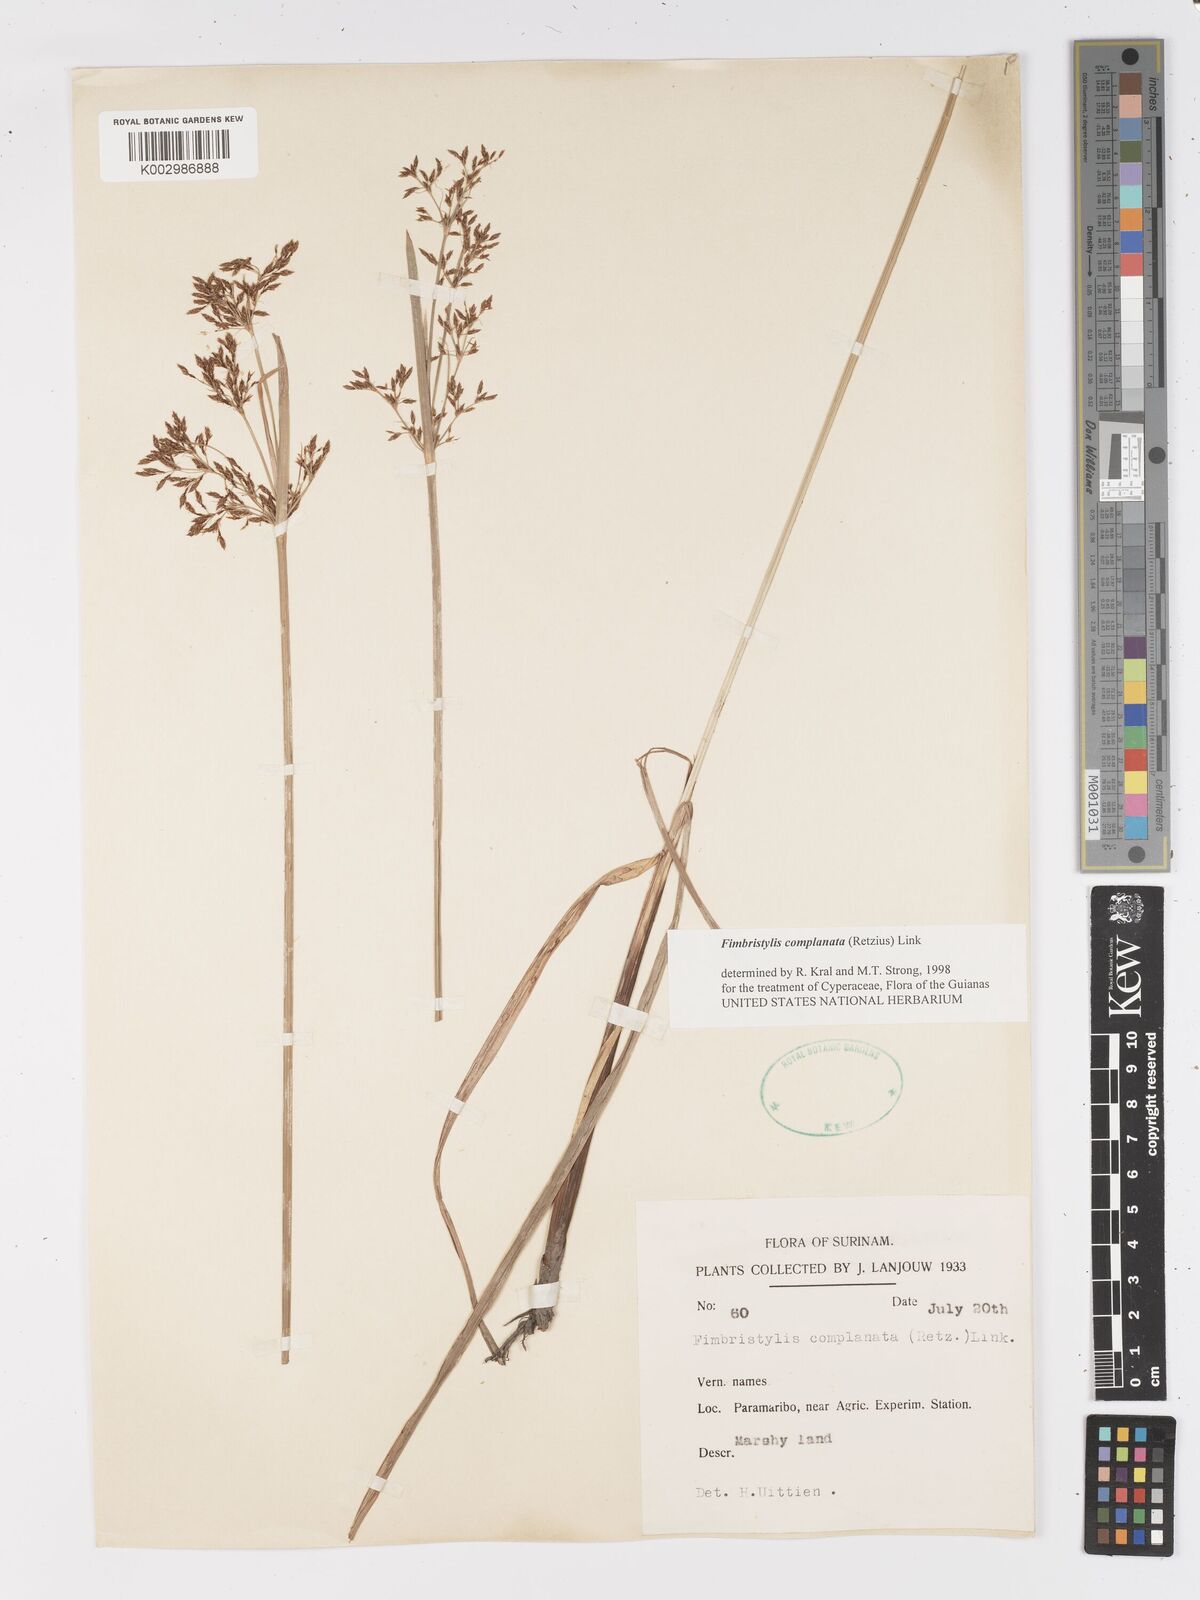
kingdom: Plantae
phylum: Tracheophyta
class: Liliopsida
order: Poales
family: Cyperaceae
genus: Fimbristylis
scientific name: Fimbristylis complanata
